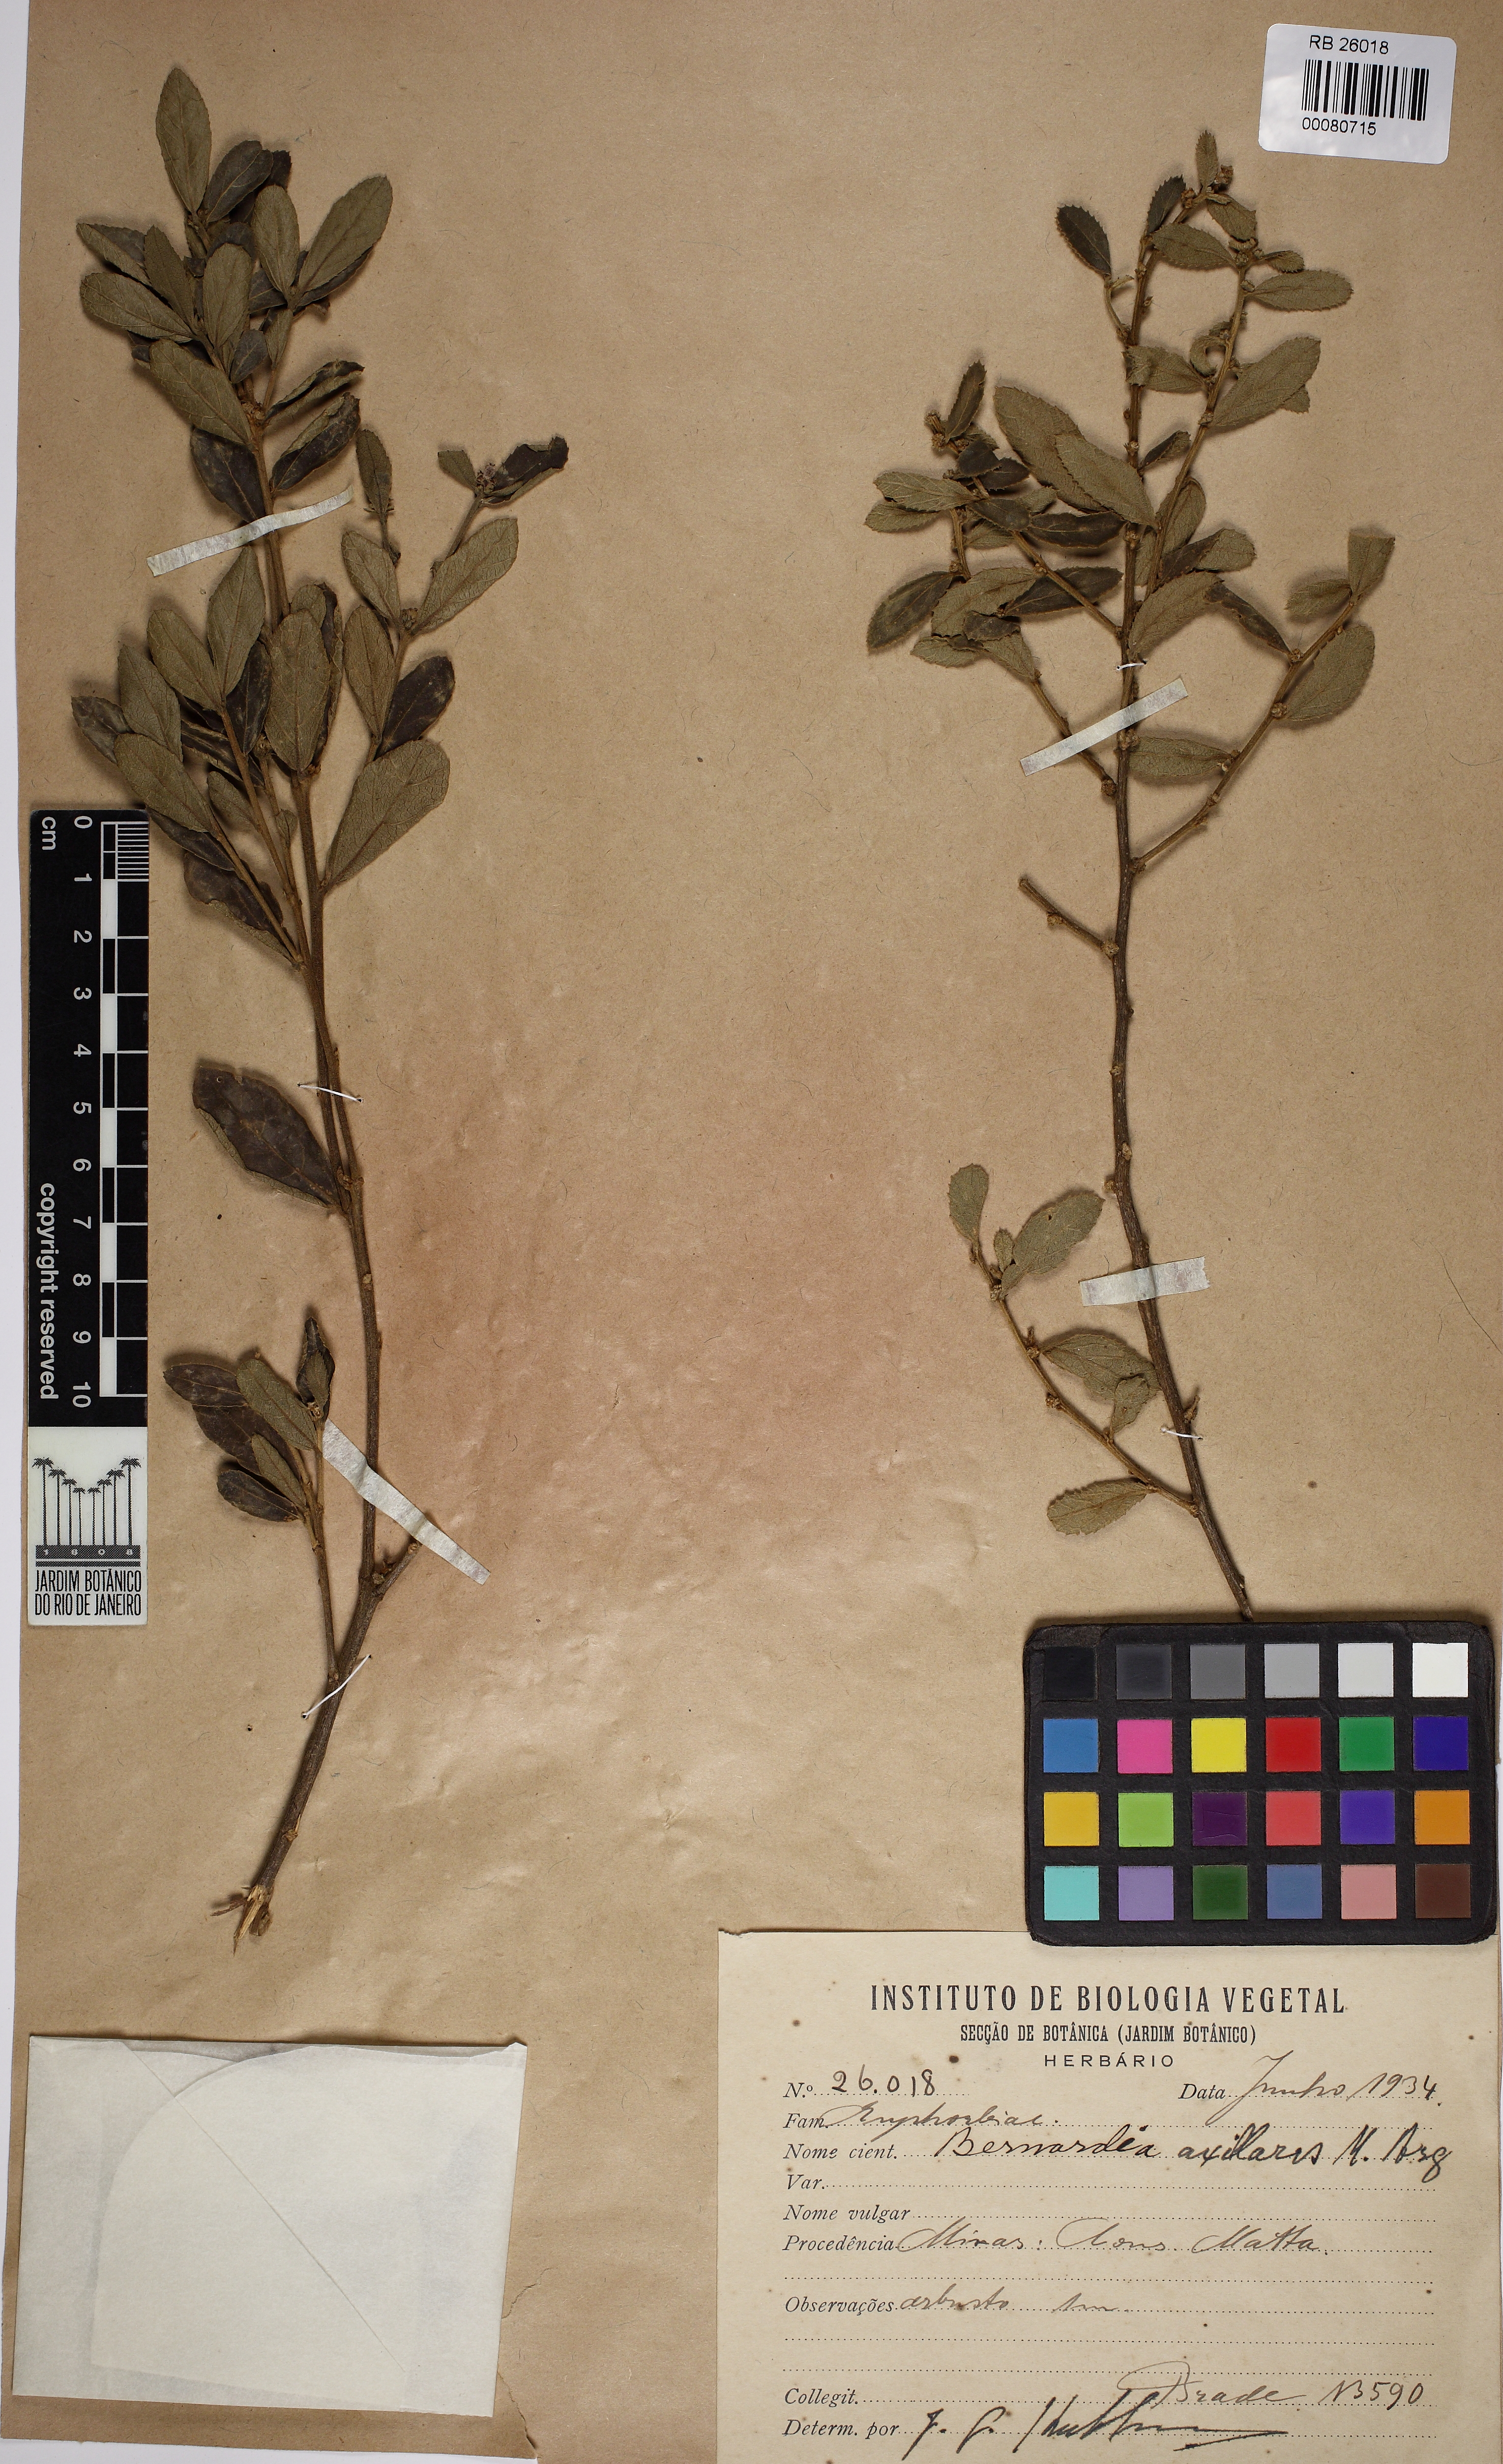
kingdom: Plantae
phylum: Tracheophyta
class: Magnoliopsida
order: Malpighiales
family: Euphorbiaceae
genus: Bernardia
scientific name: Bernardia similis
